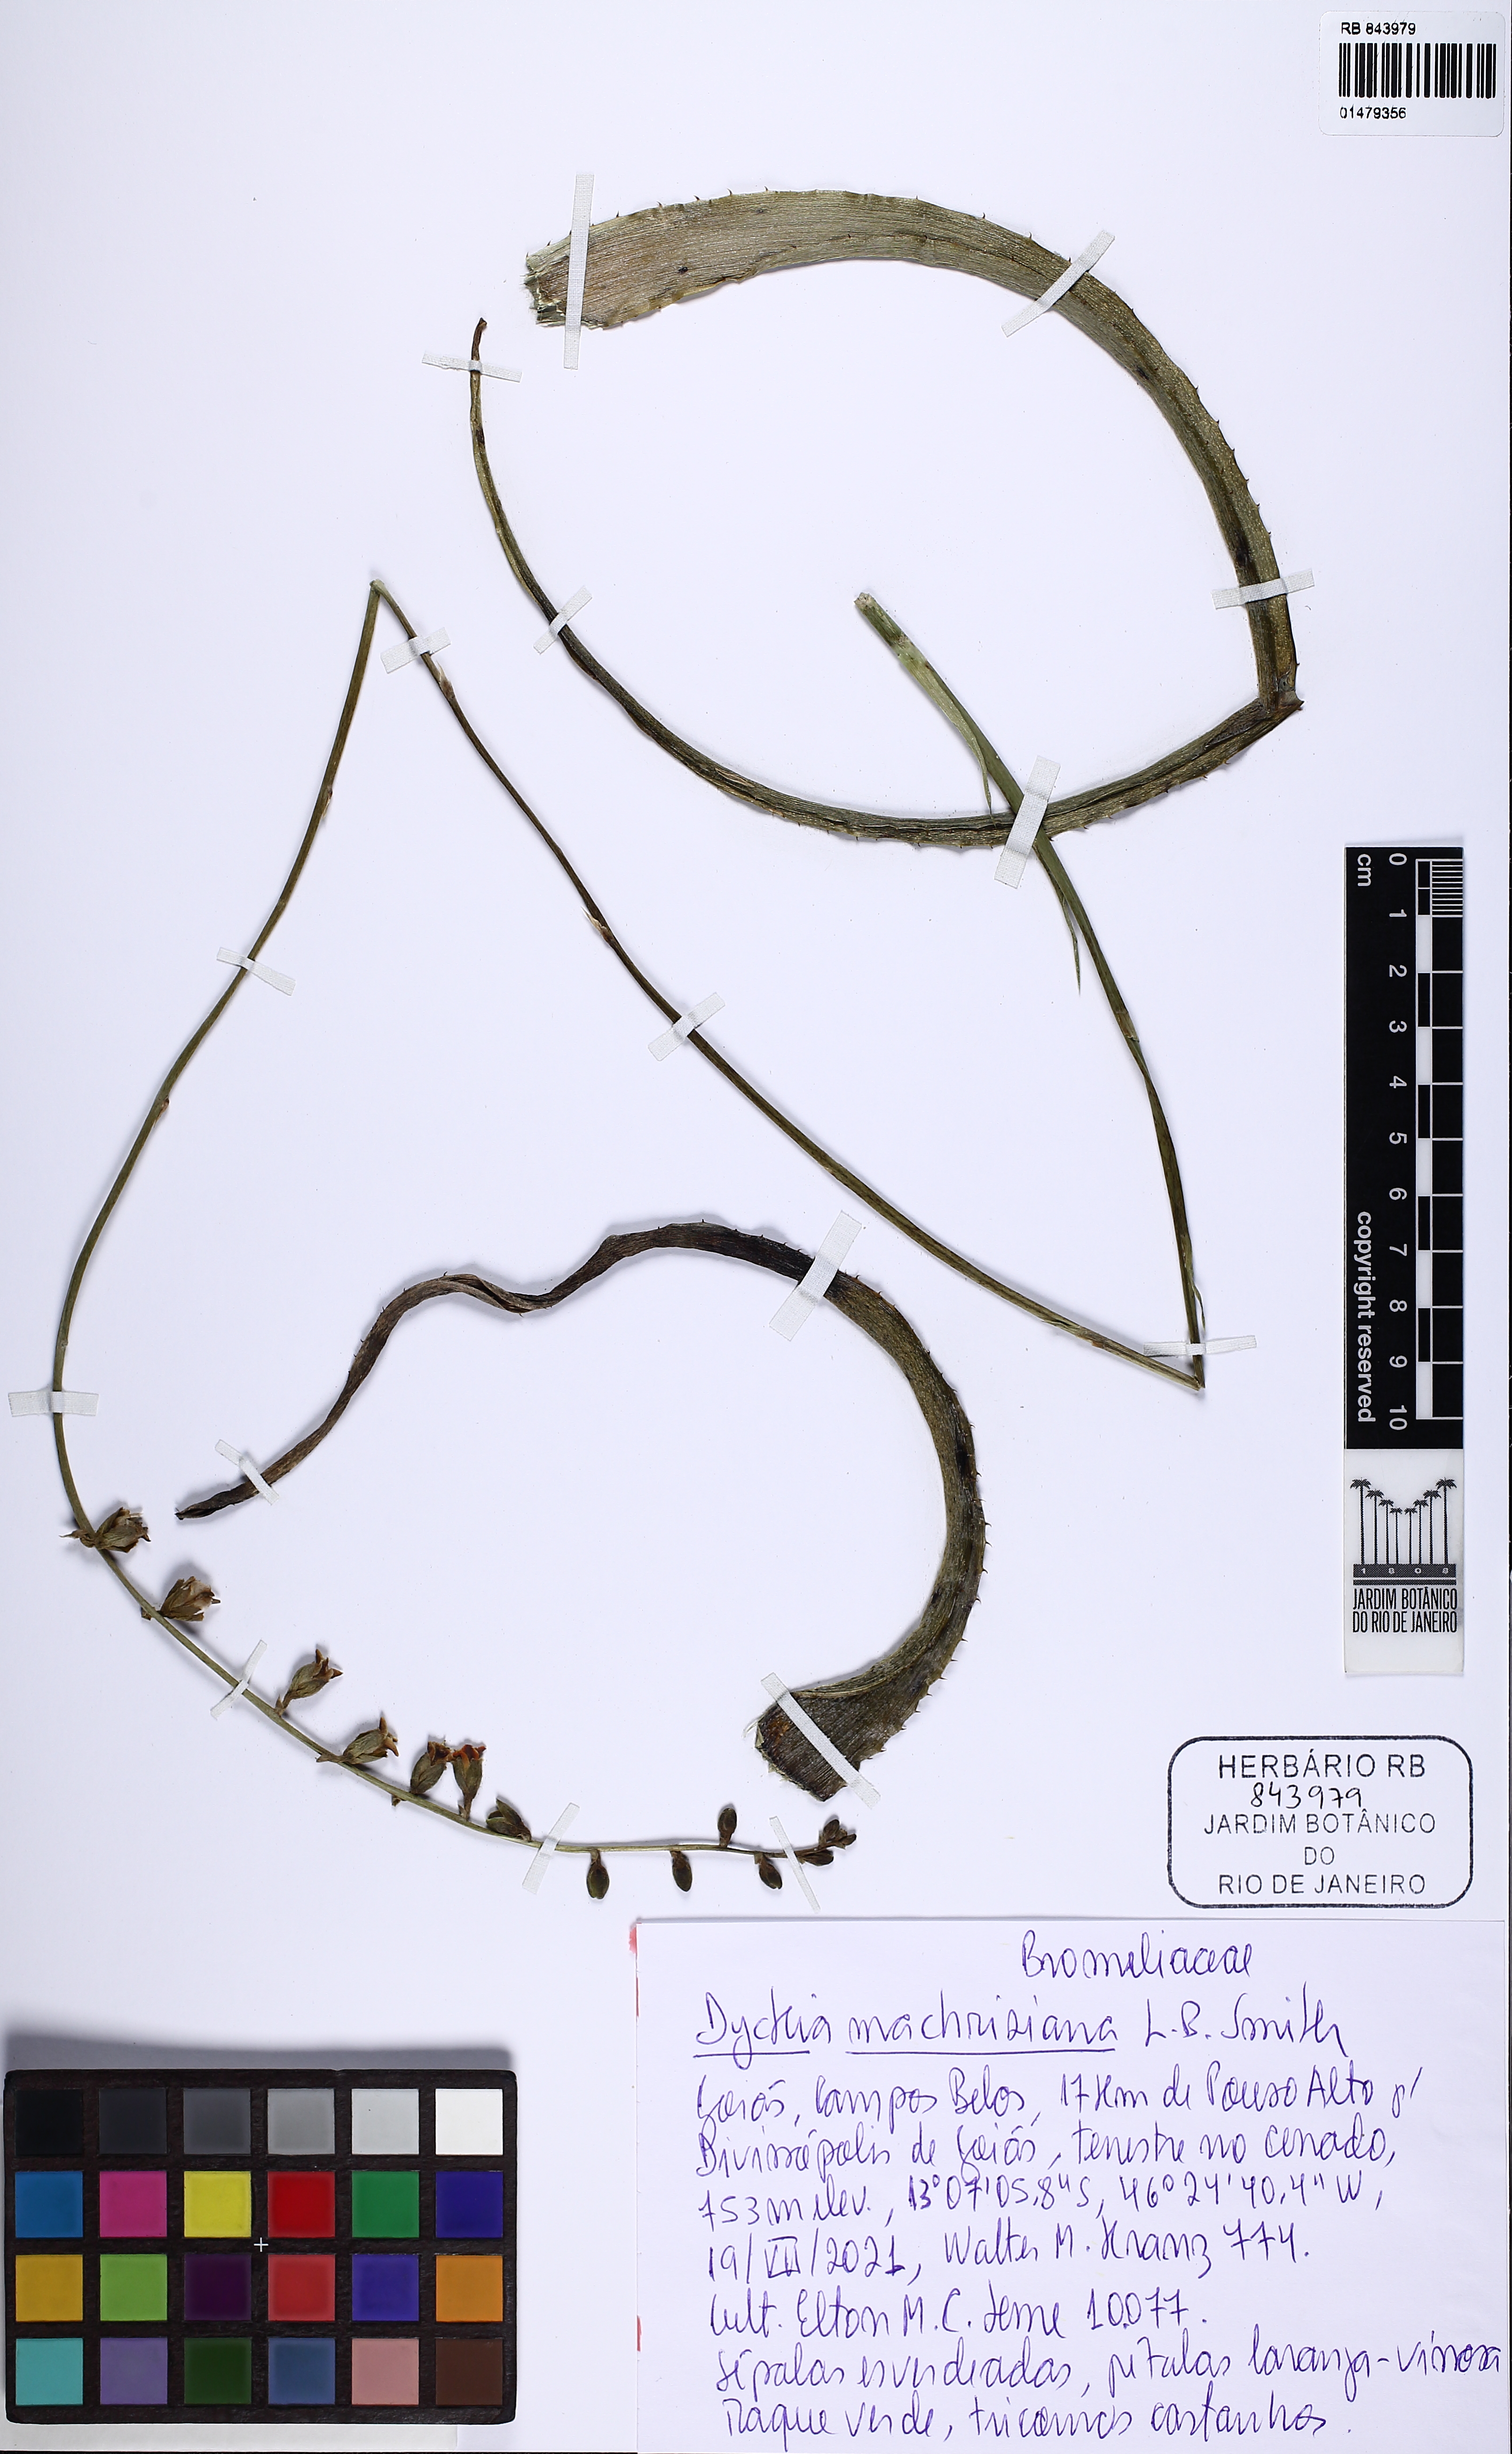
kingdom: Plantae
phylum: Tracheophyta
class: Liliopsida
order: Poales
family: Bromeliaceae
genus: Dyckia
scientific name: Dyckia machrisiana
